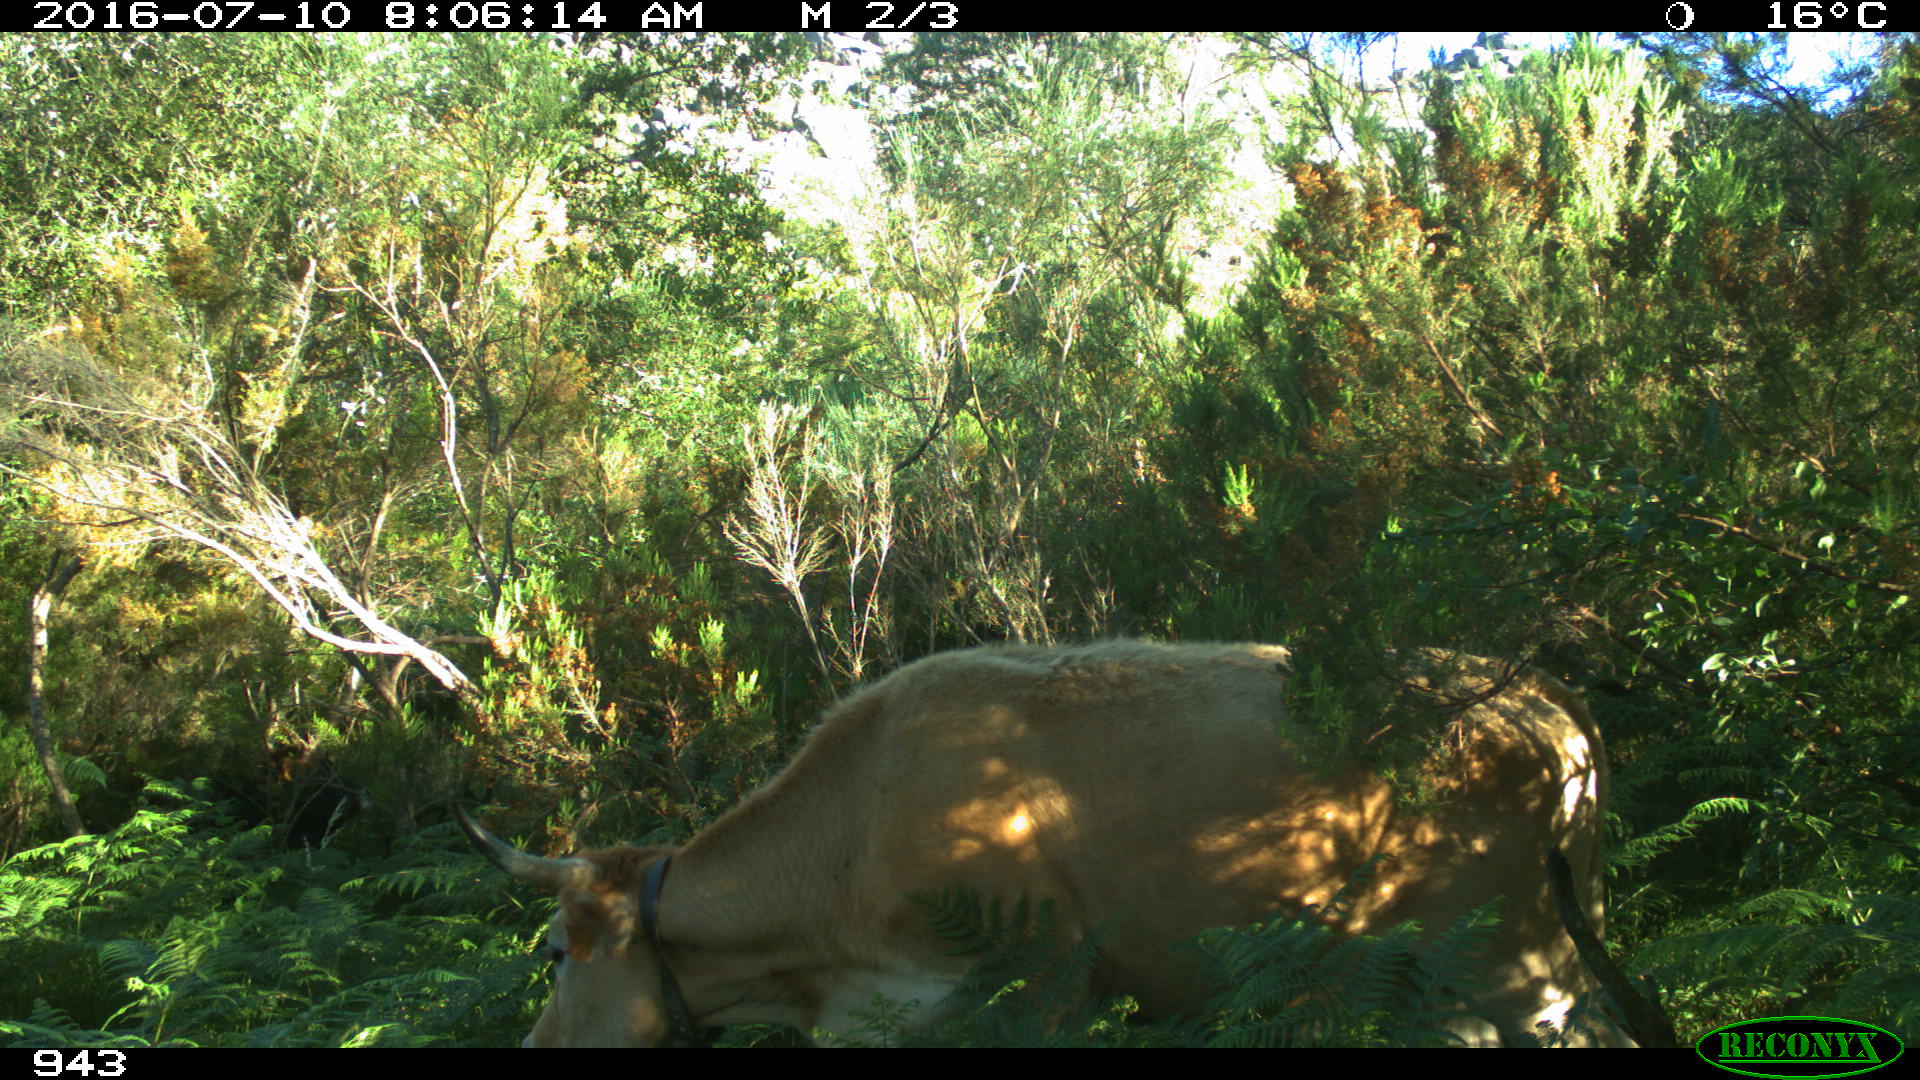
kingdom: Animalia
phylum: Chordata
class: Mammalia
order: Artiodactyla
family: Bovidae
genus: Bos
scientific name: Bos taurus
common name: Domesticated cattle
